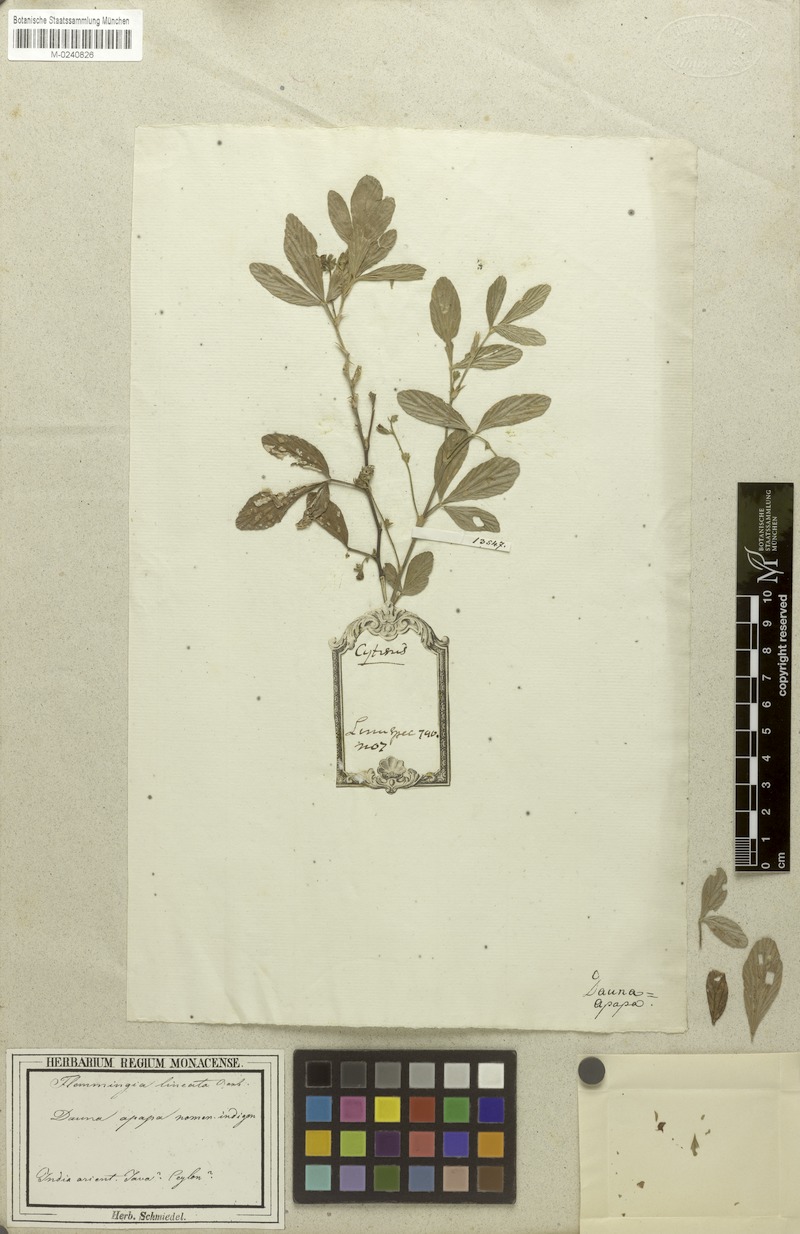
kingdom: Plantae
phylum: Tracheophyta
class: Magnoliopsida
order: Fabales
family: Fabaceae
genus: Flemingia
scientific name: Flemingia lineata
